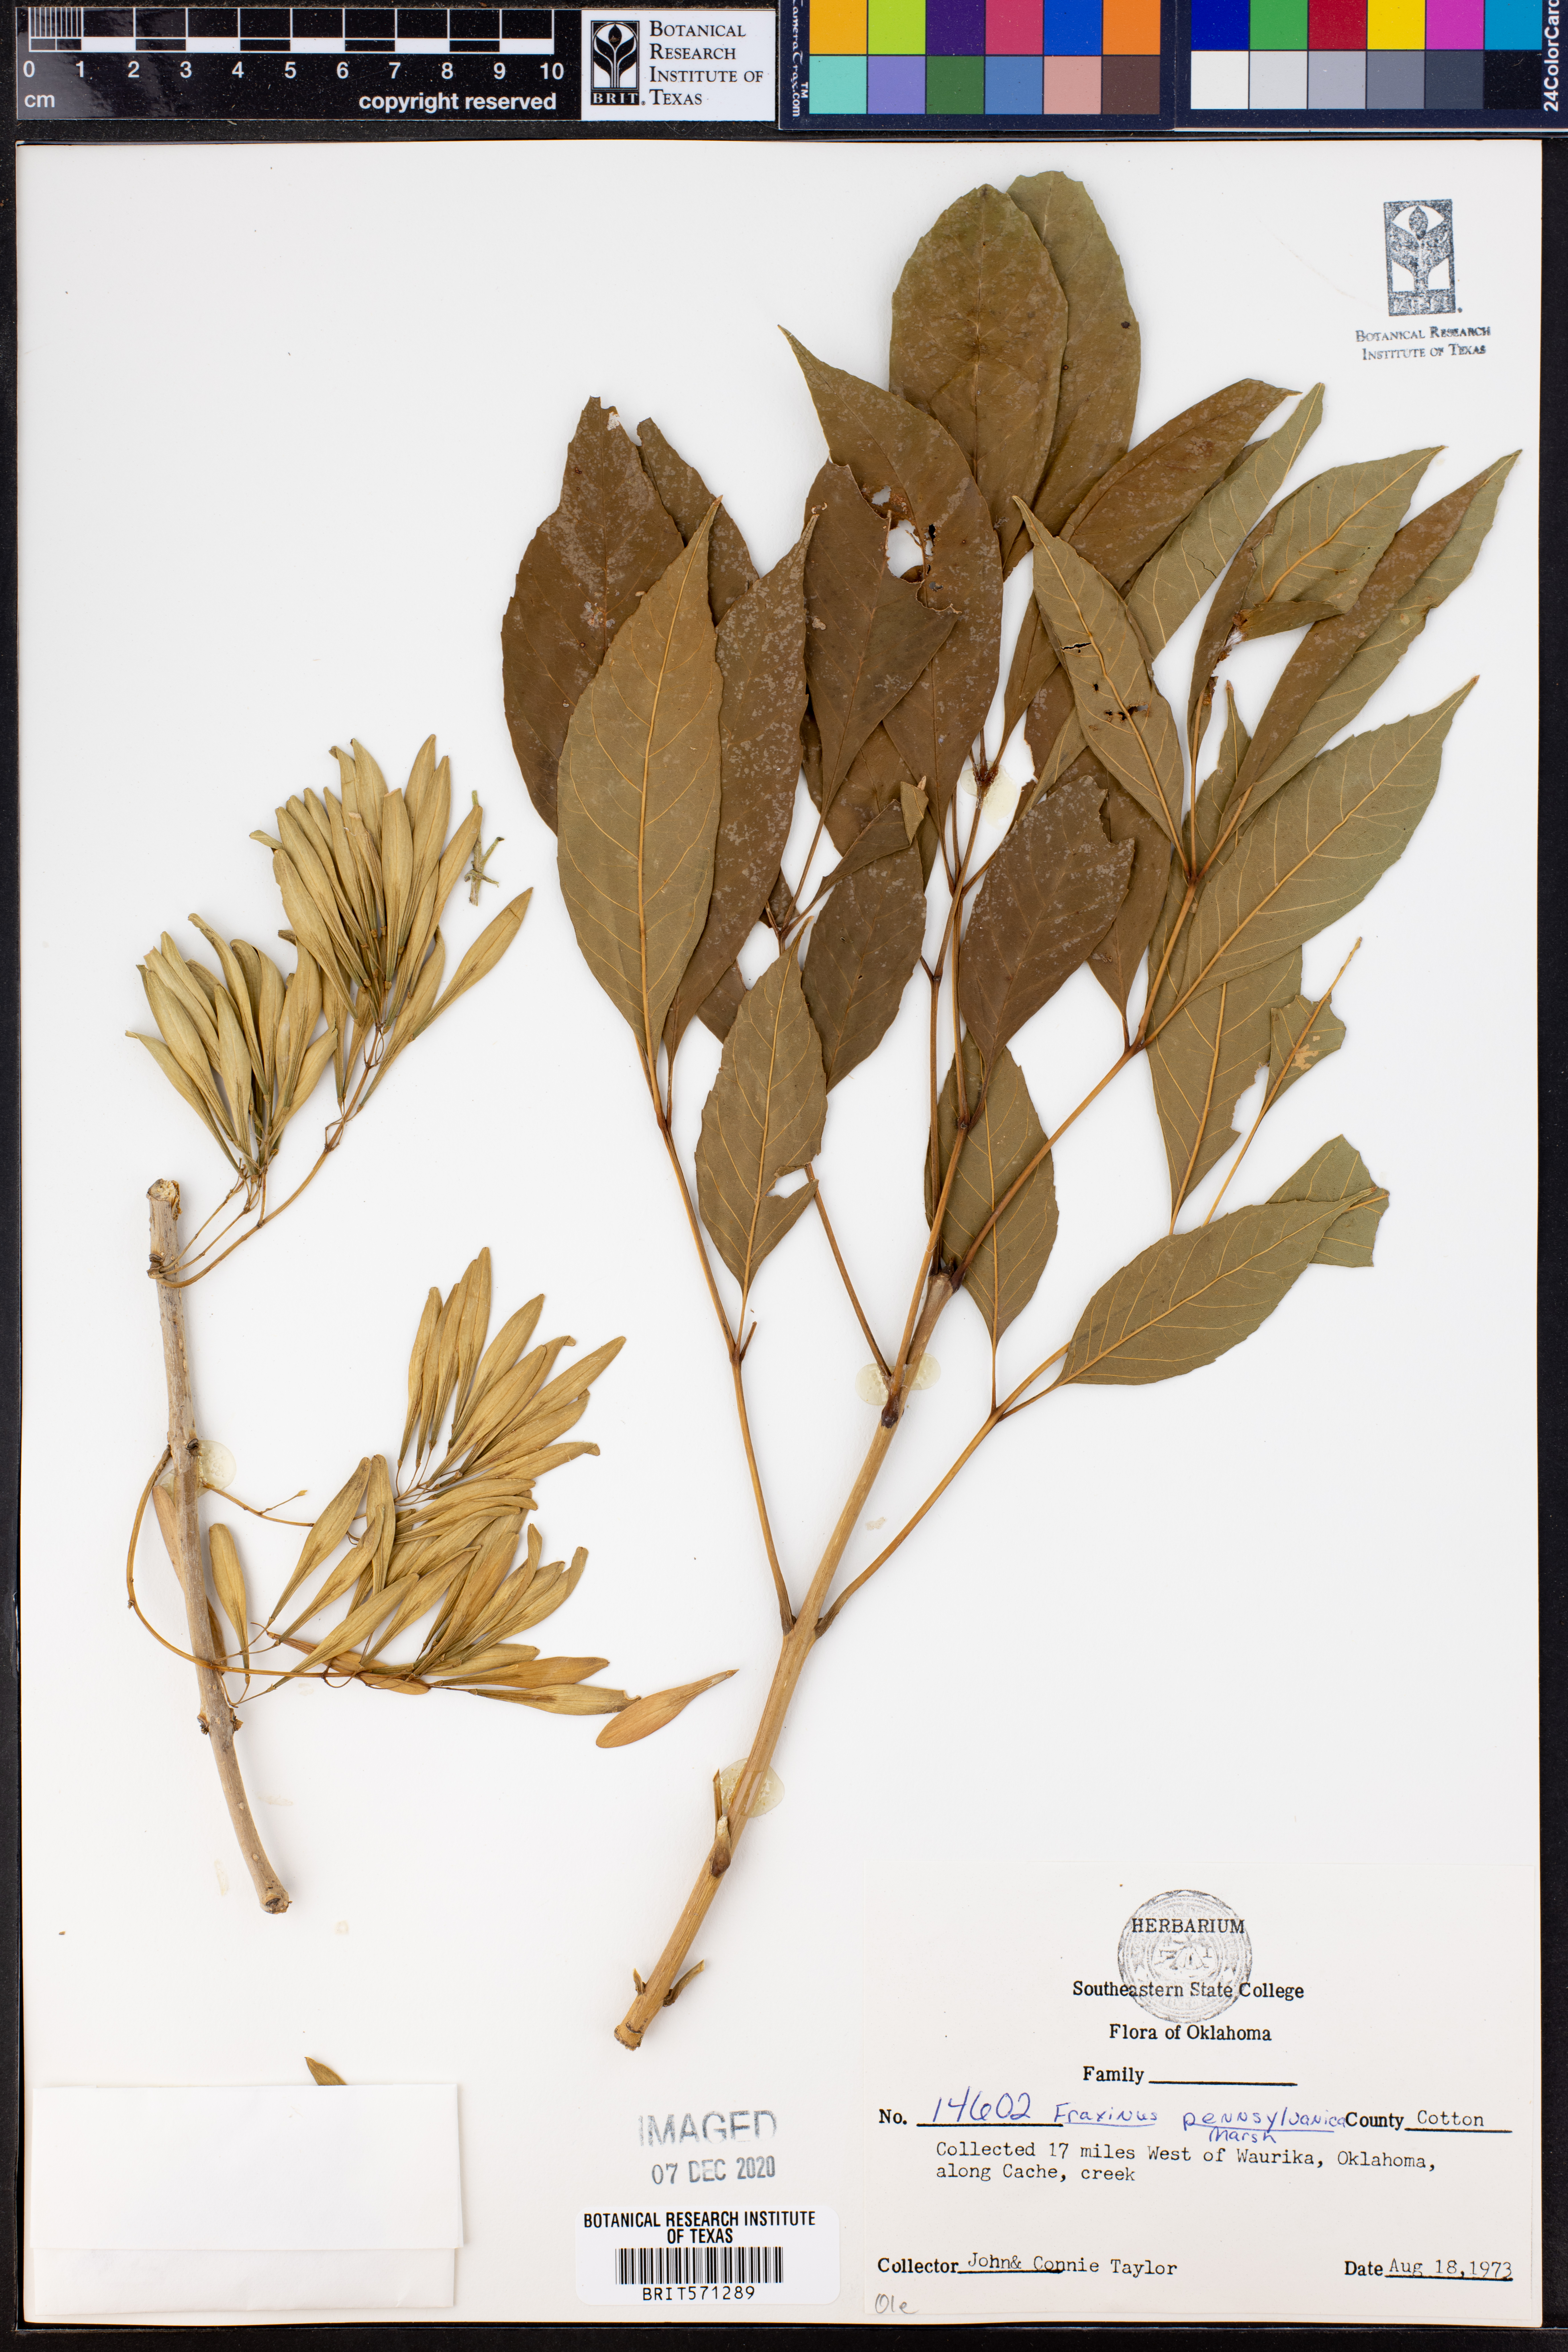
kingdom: Plantae
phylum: Tracheophyta
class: Magnoliopsida
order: Lamiales
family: Oleaceae
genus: Fraxinus
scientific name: Fraxinus pennsylvanica
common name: Green ash
